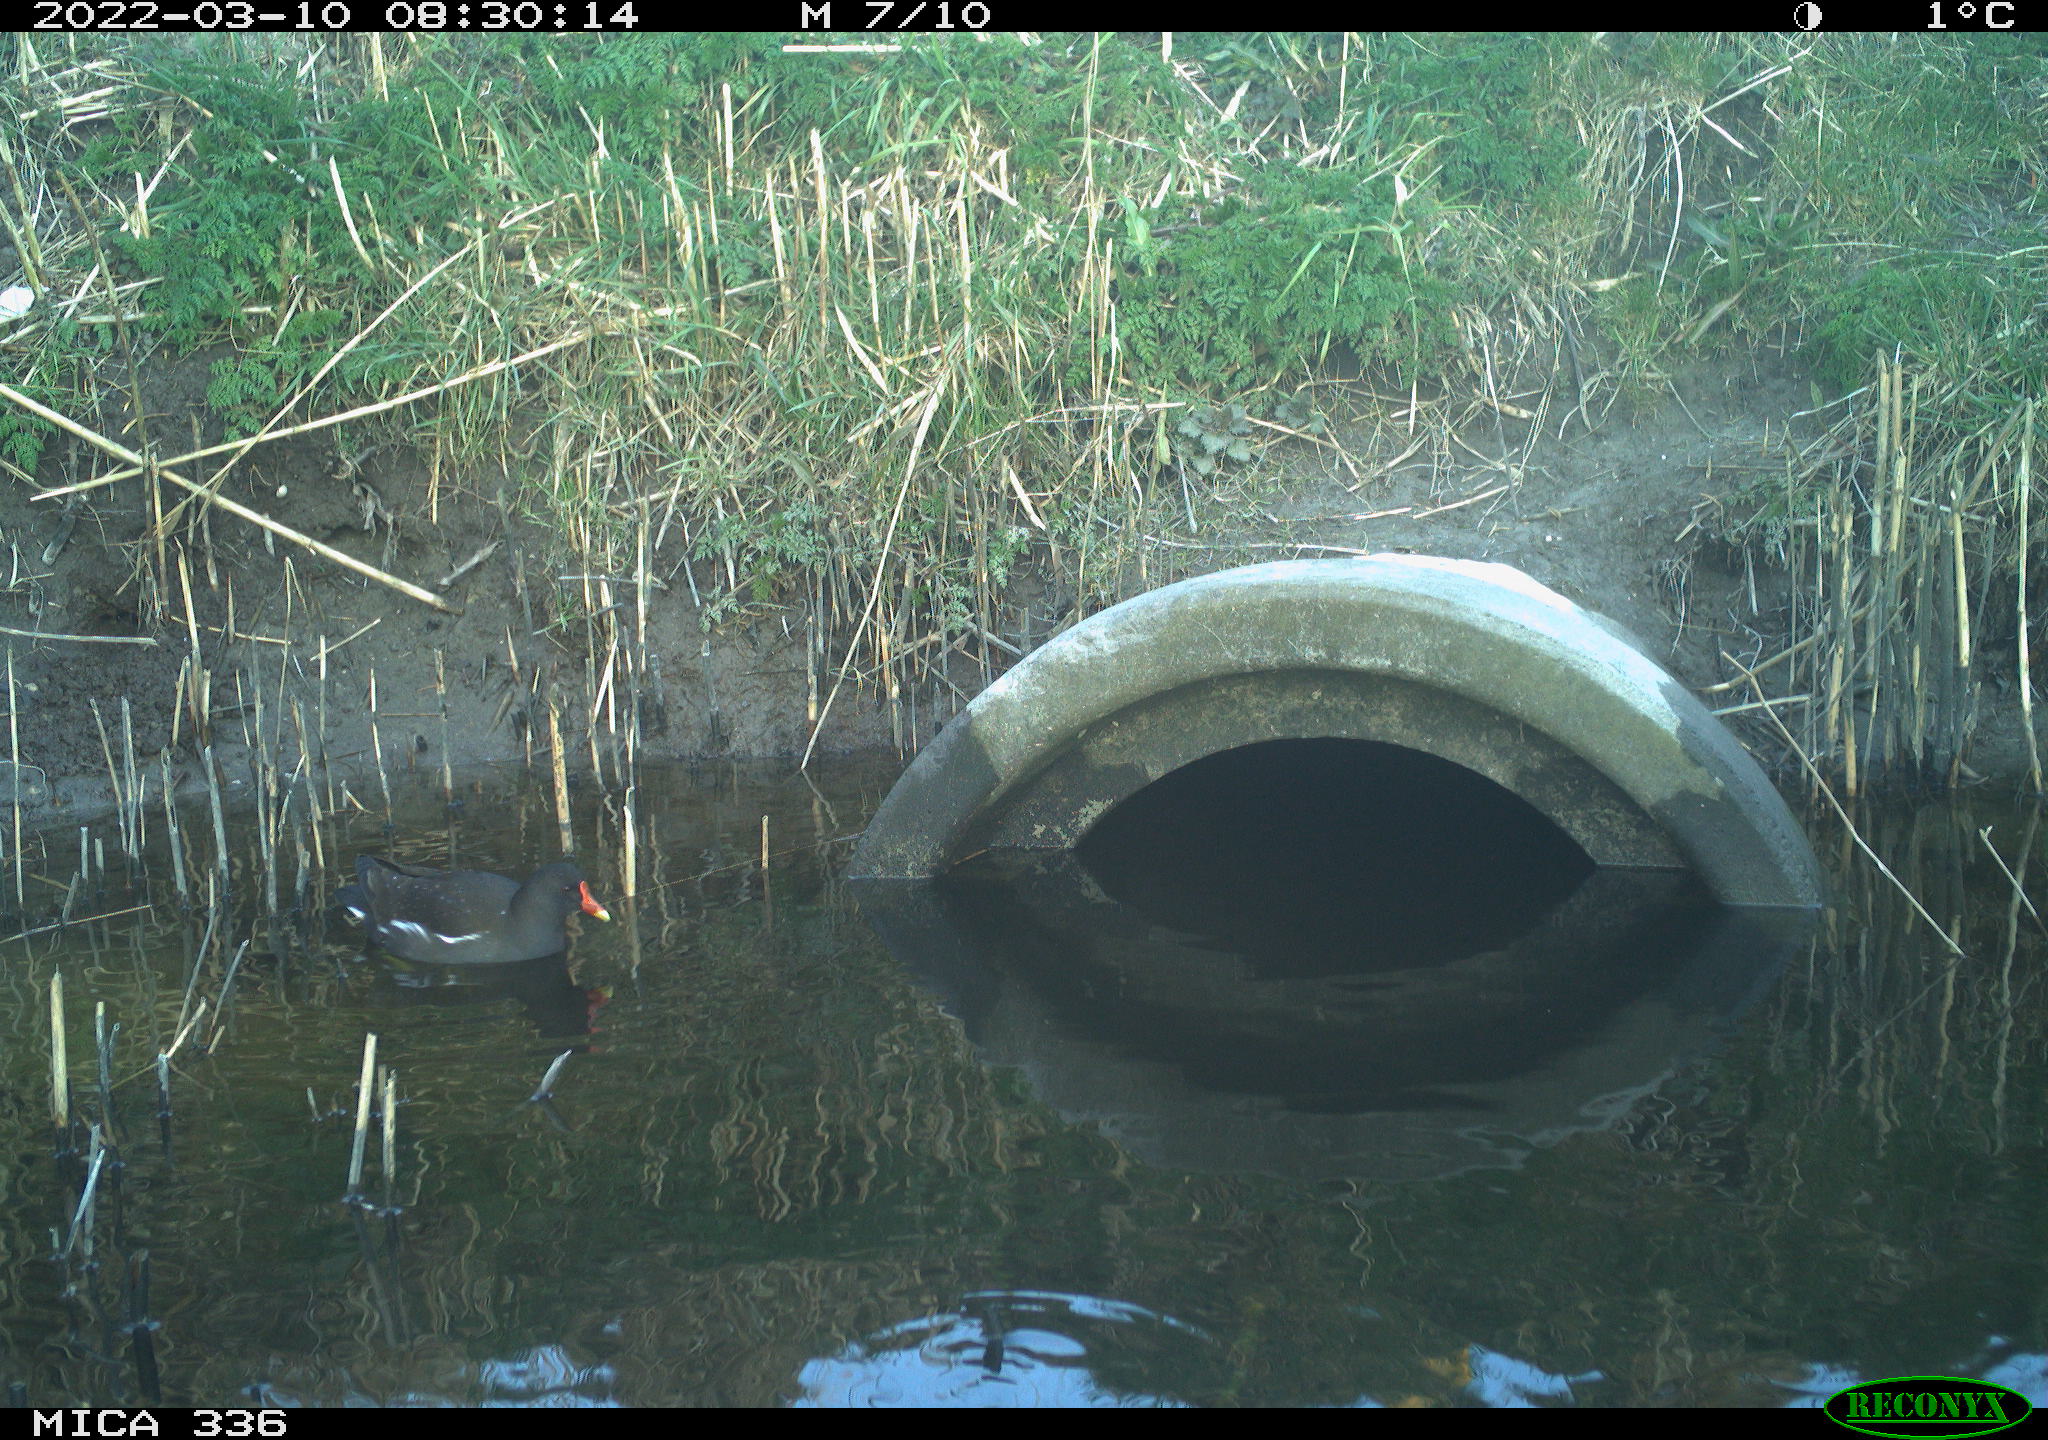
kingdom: Animalia
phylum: Chordata
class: Aves
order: Gruiformes
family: Rallidae
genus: Gallinula
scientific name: Gallinula chloropus
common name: Common moorhen
